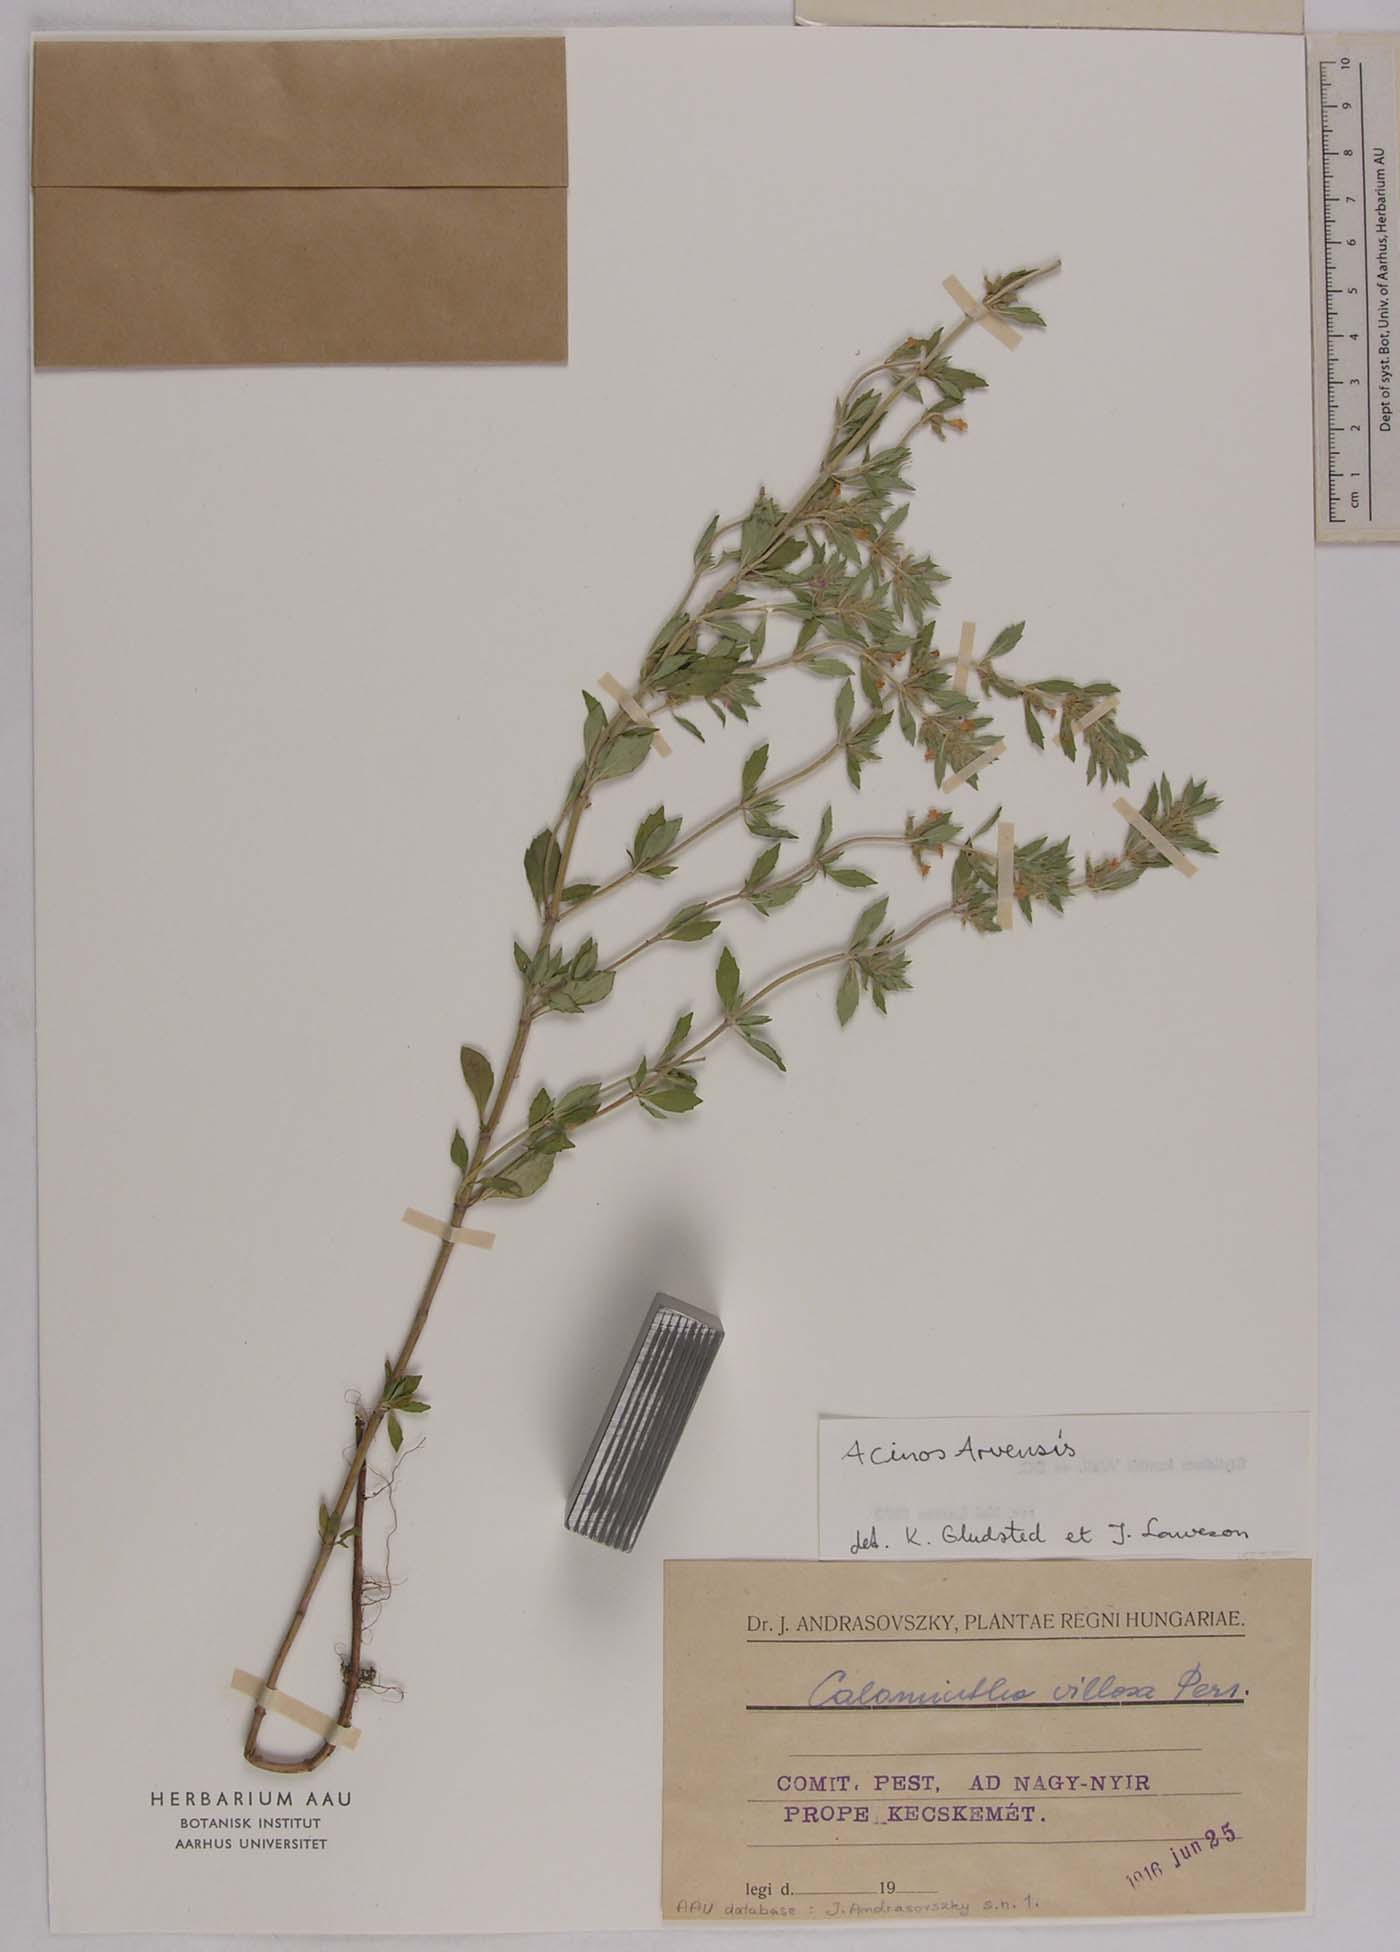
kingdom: Plantae
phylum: Tracheophyta
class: Magnoliopsida
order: Lamiales
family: Lamiaceae
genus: Clinopodium
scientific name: Clinopodium acinos
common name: Basil thyme
